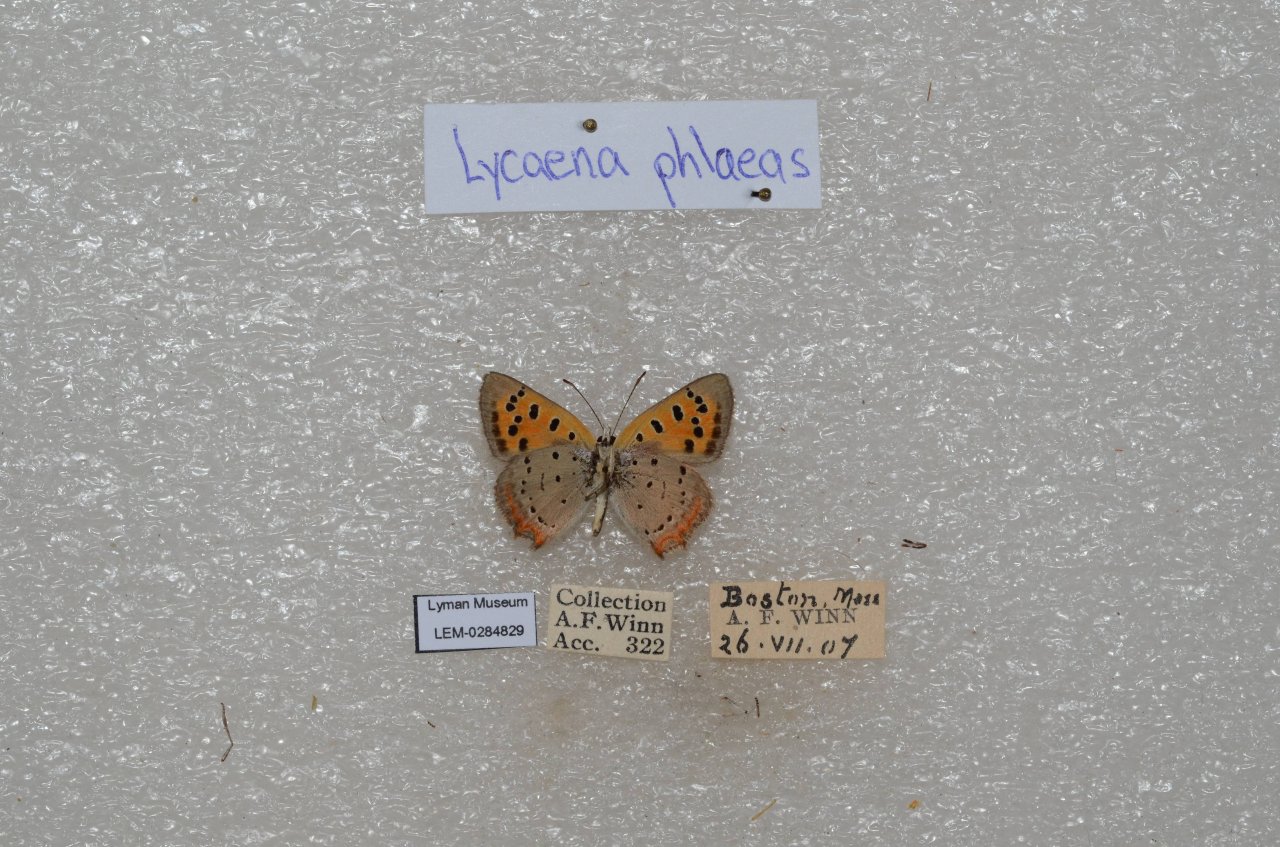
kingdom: Animalia
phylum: Arthropoda
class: Insecta
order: Lepidoptera
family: Lycaenidae
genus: Lycaena
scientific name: Lycaena phlaeas
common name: American Copper
